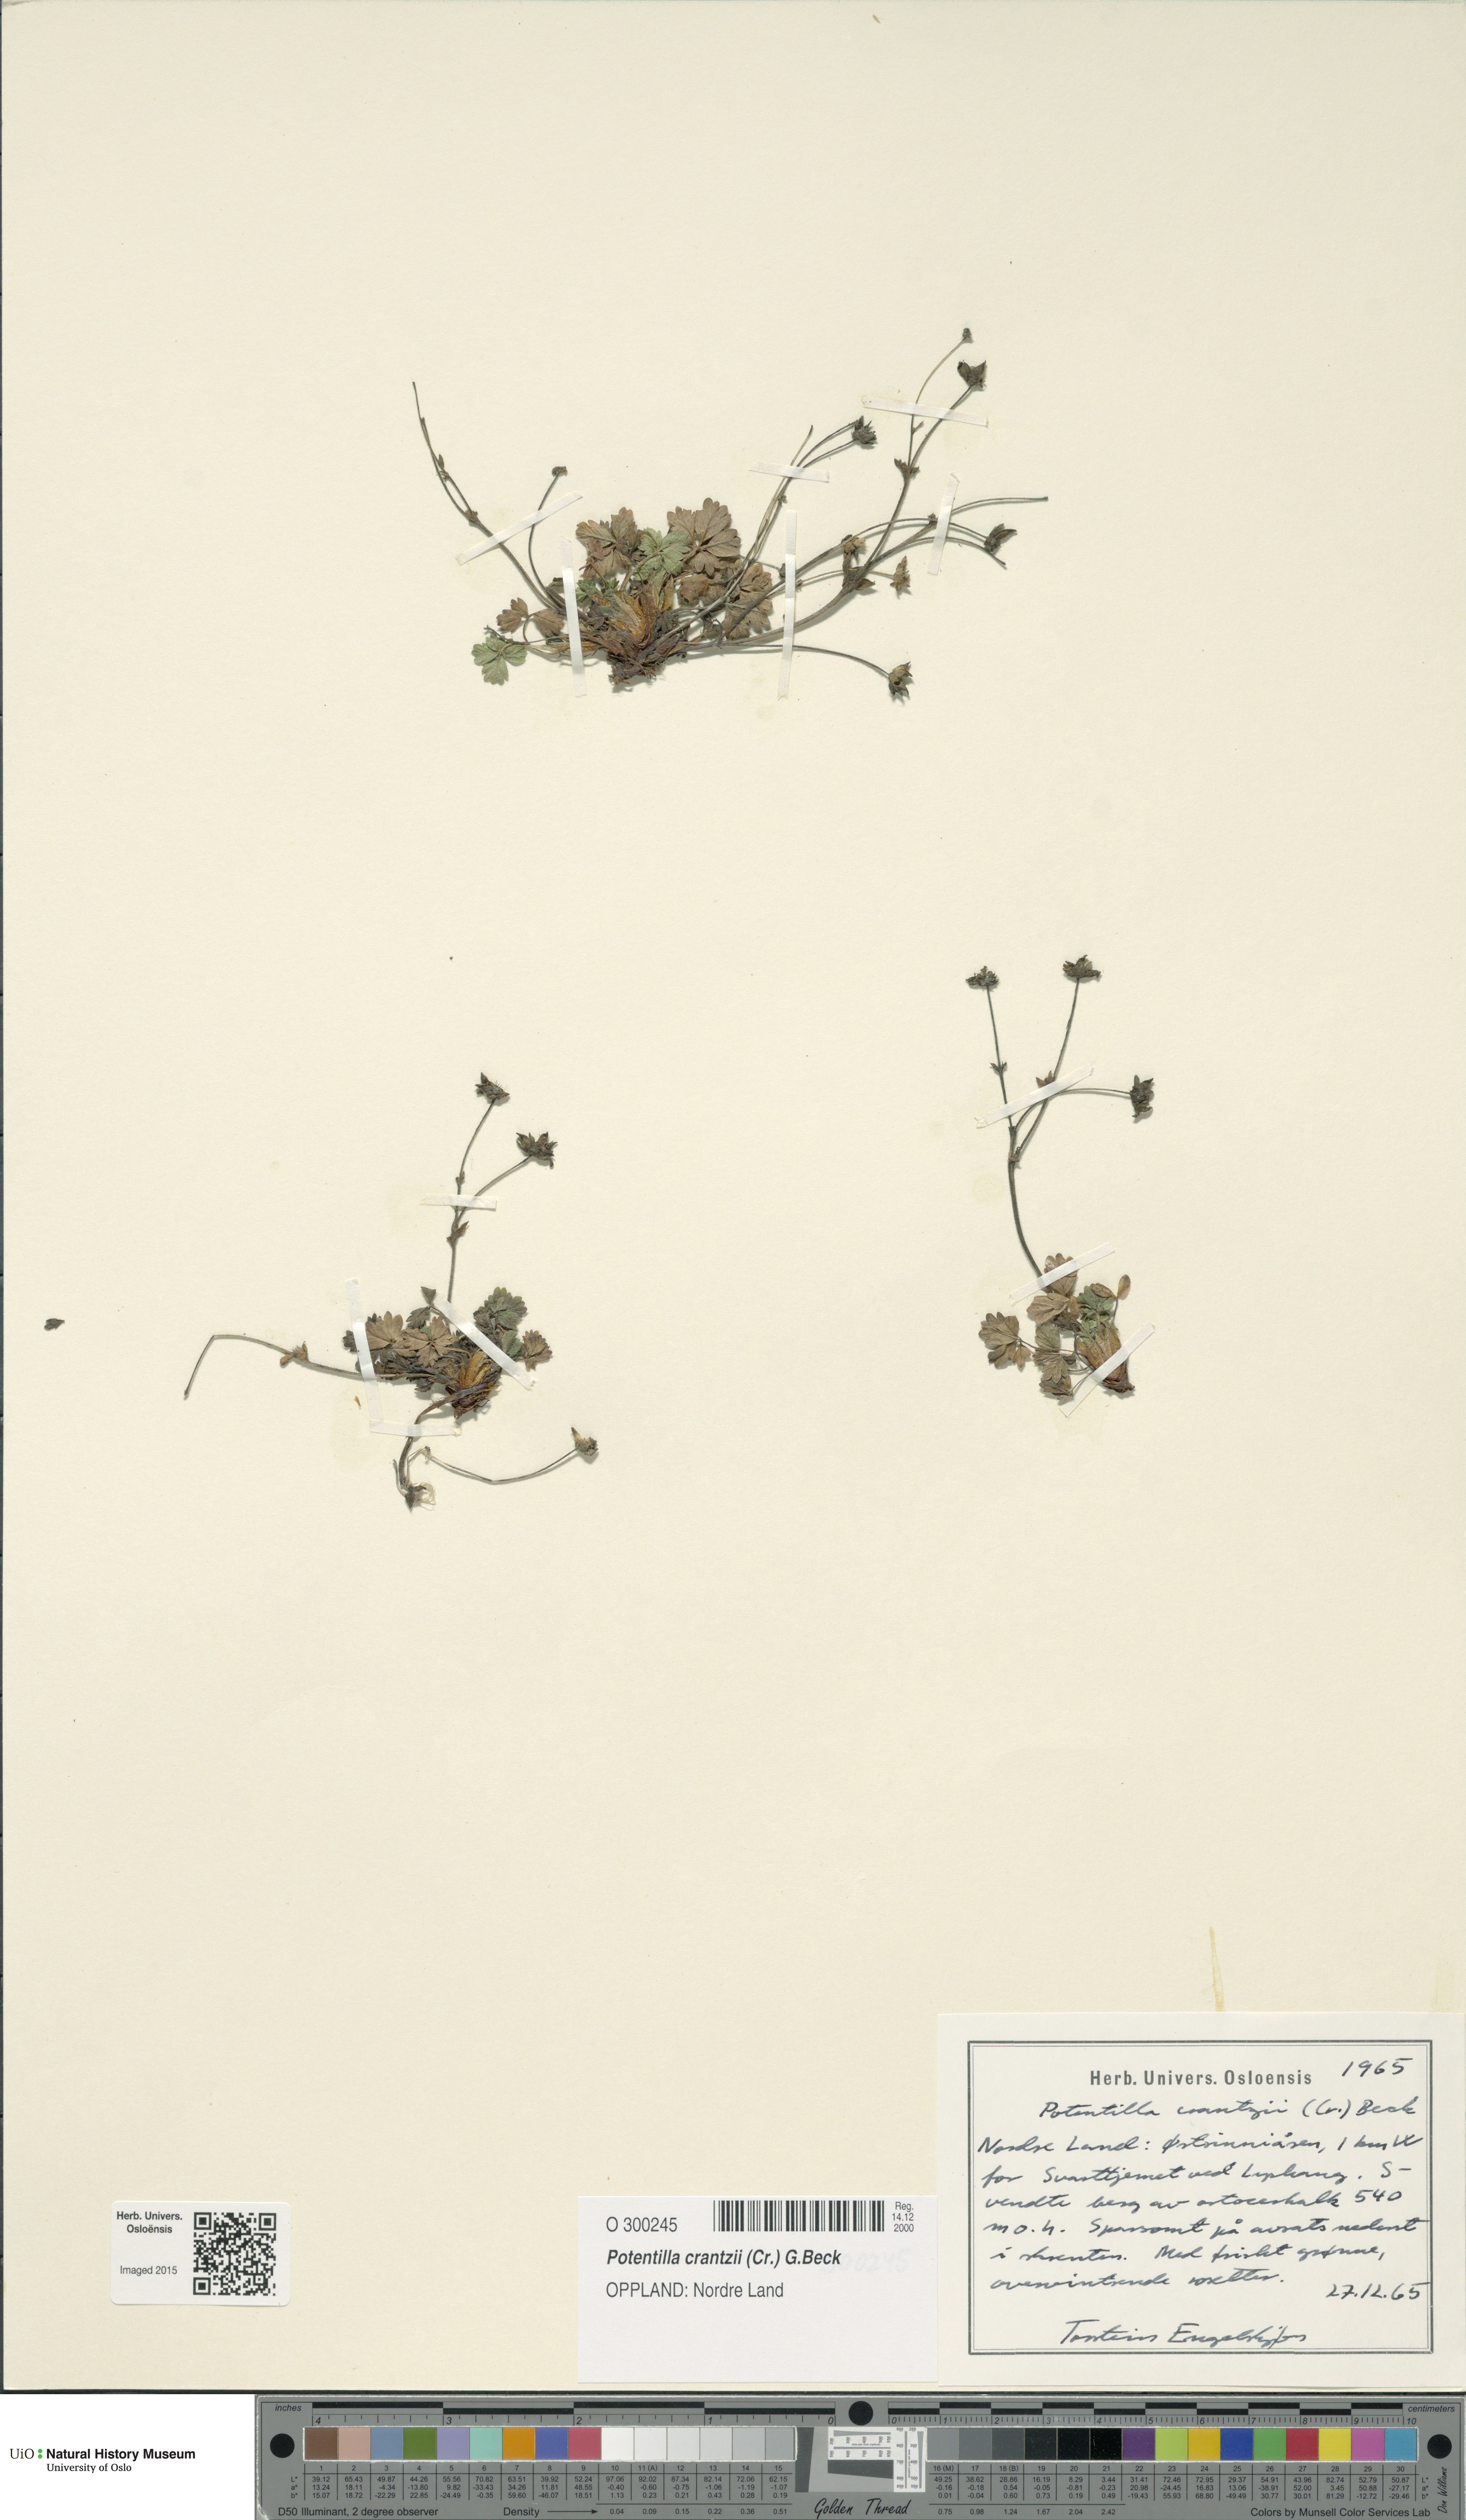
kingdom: Plantae
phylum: Tracheophyta
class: Magnoliopsida
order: Rosales
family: Rosaceae
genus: Potentilla
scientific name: Potentilla crantzii
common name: Alpine cinquefoil
